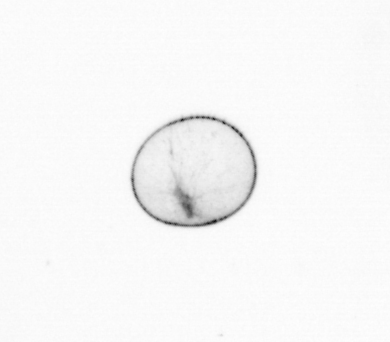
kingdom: Chromista
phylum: Myzozoa
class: Dinophyceae
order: Noctilucales
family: Noctilucaceae
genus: Noctiluca
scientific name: Noctiluca scintillans
